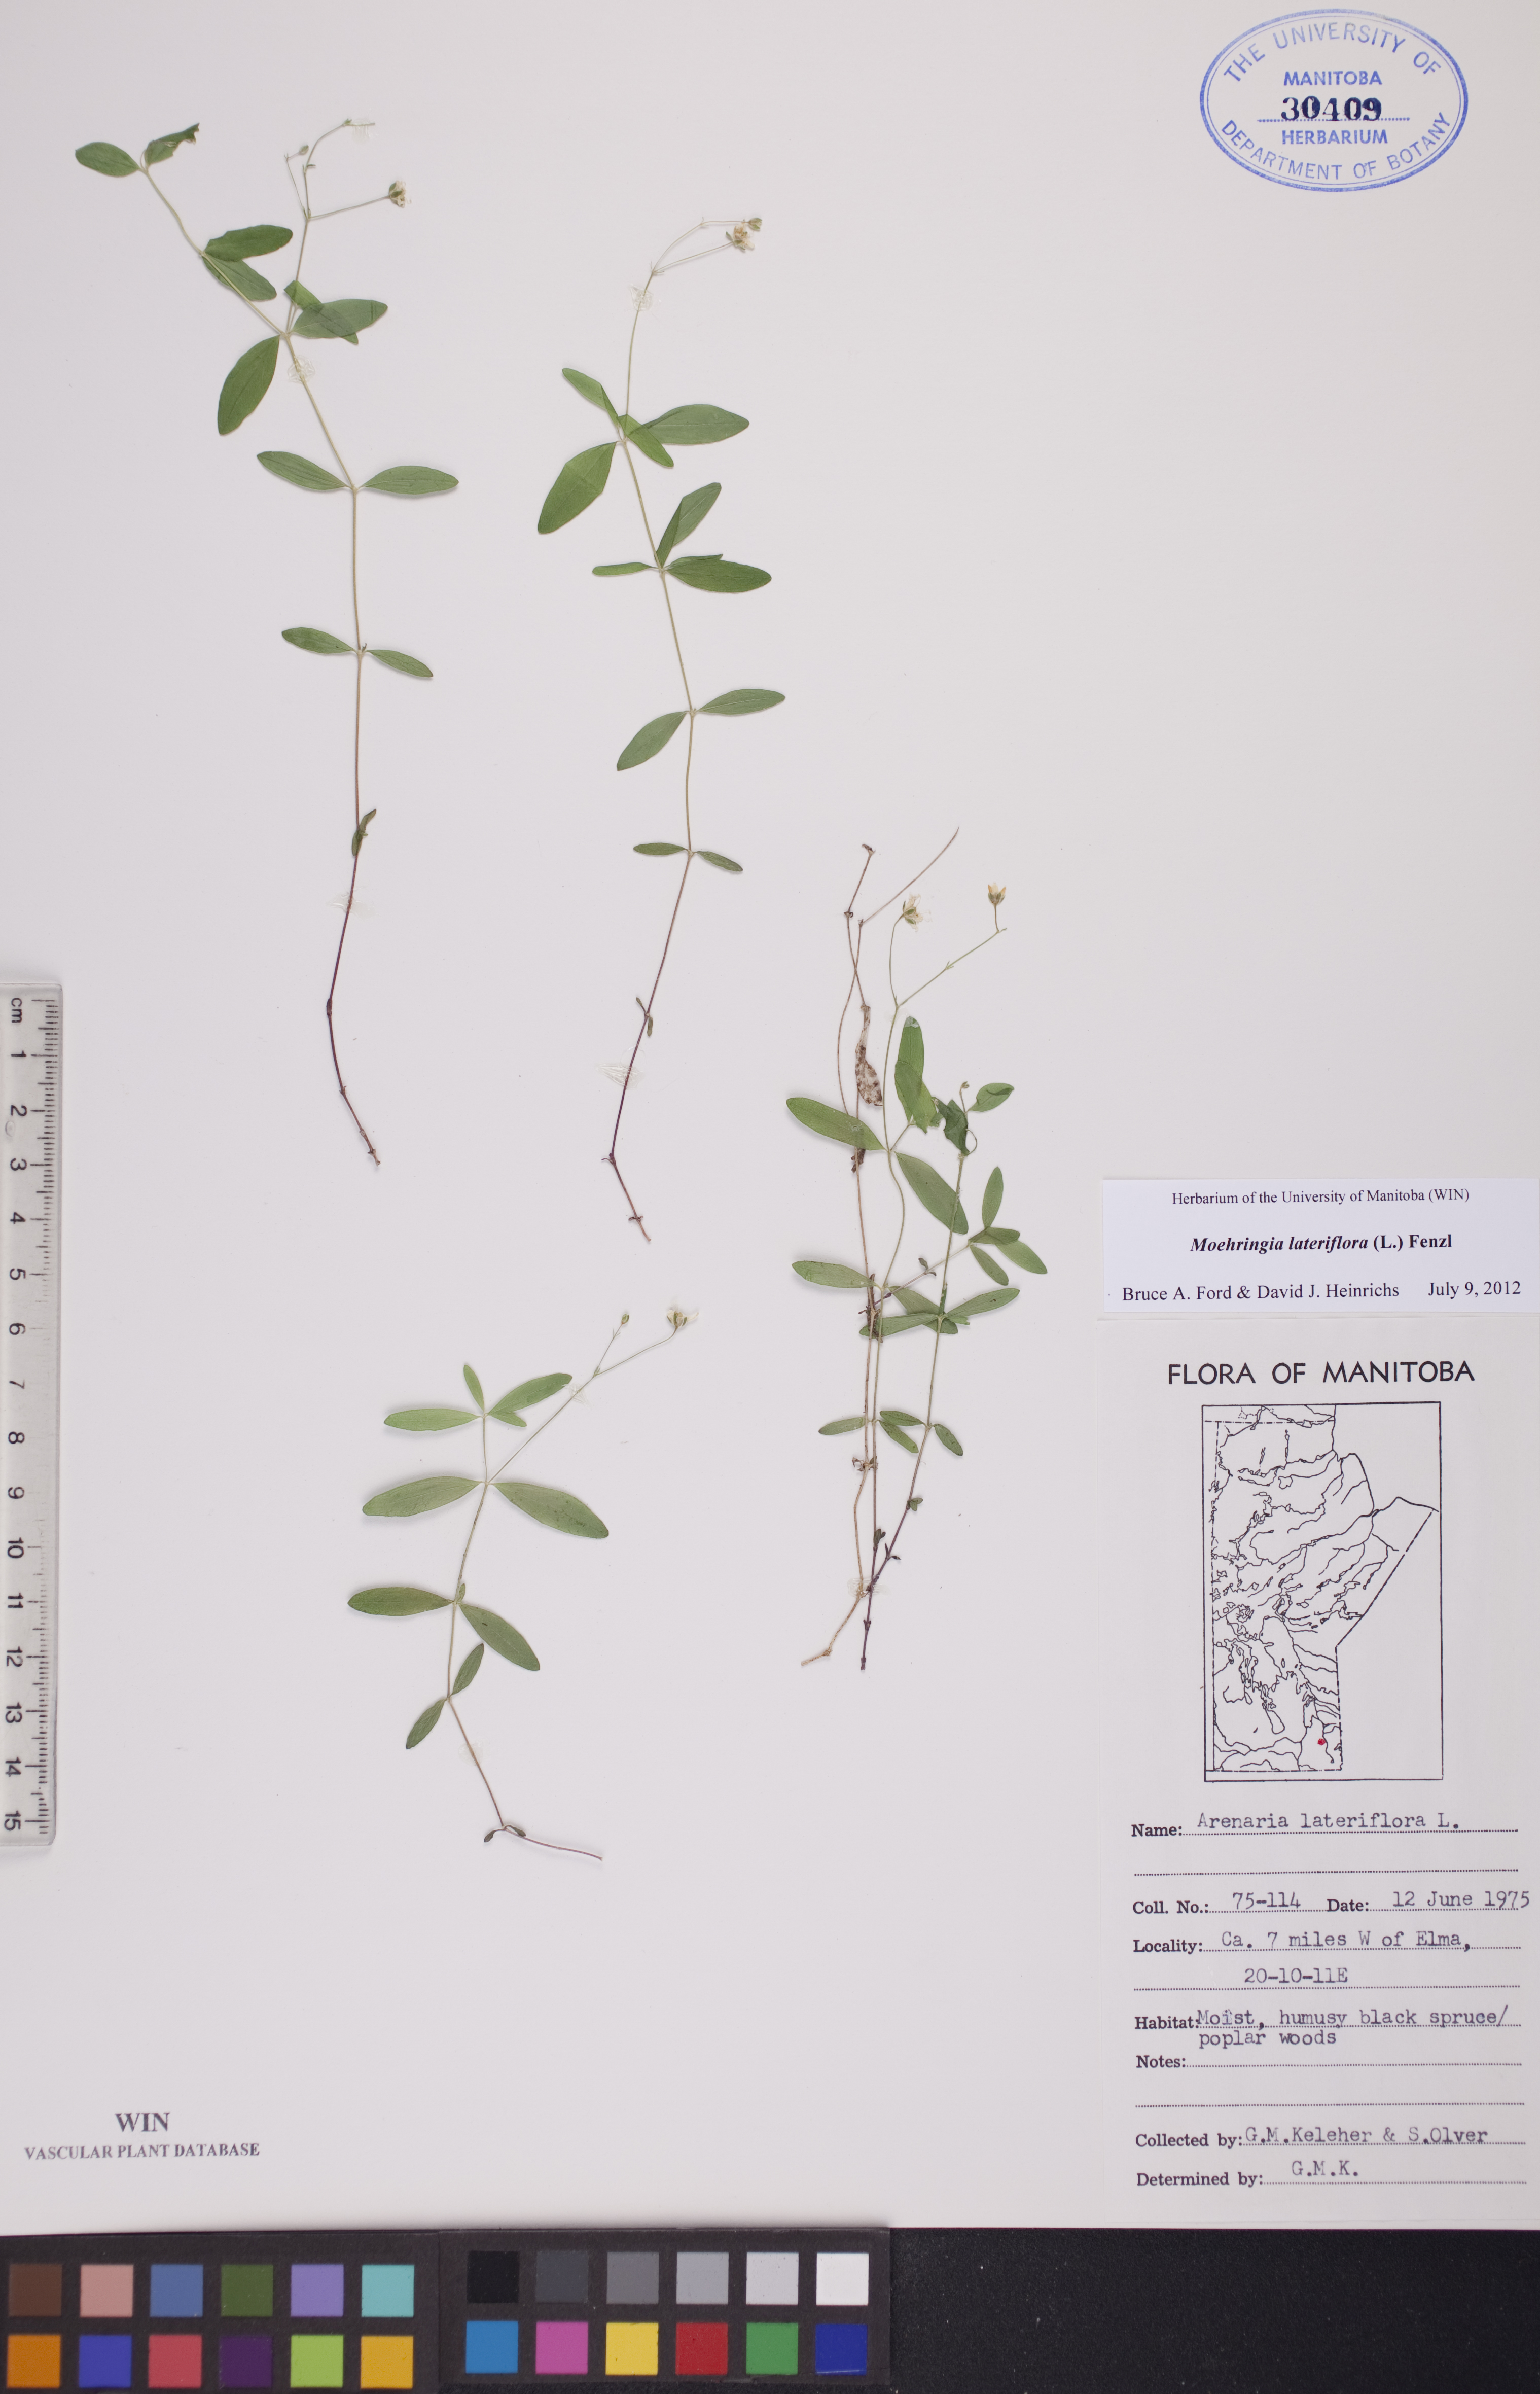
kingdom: Plantae
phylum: Tracheophyta
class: Magnoliopsida
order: Caryophyllales
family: Caryophyllaceae
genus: Moehringia
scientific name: Moehringia lateriflora
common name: Blunt-leaved sandwort
